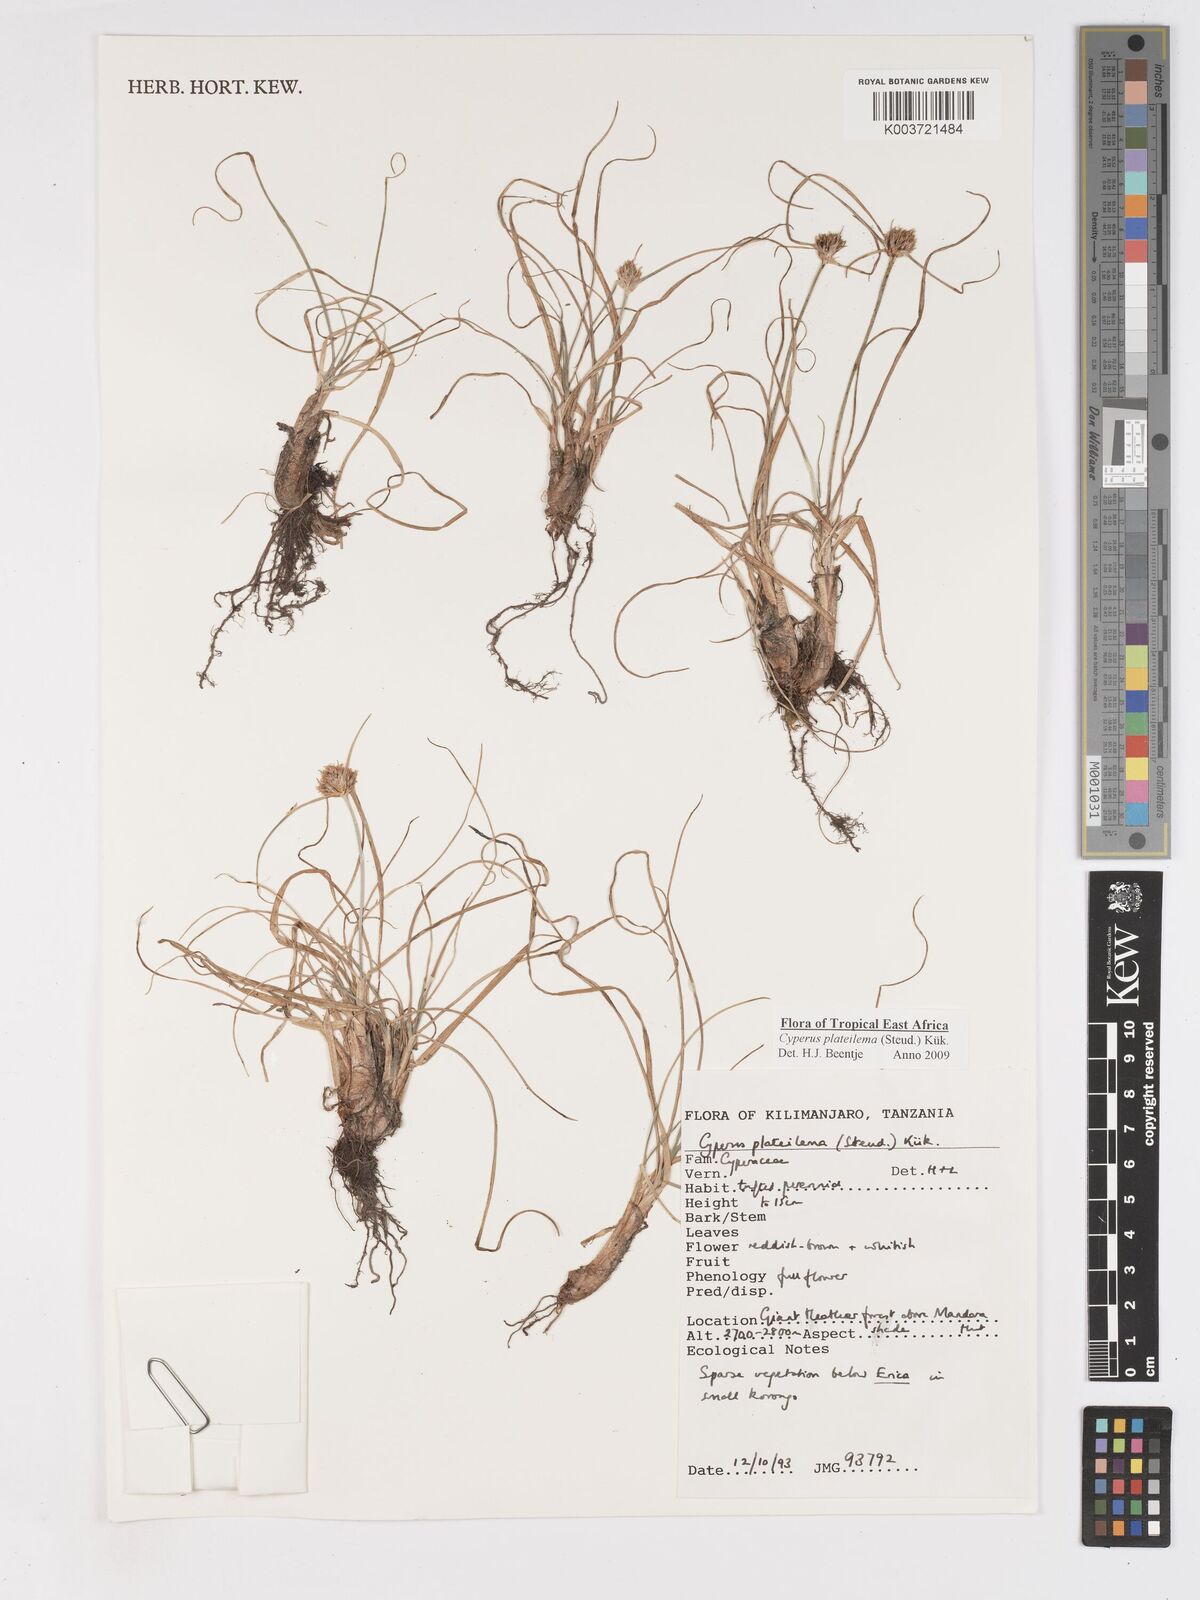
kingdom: Plantae
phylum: Tracheophyta
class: Liliopsida
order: Poales
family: Cyperaceae
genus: Cyperus
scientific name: Cyperus plateilema
